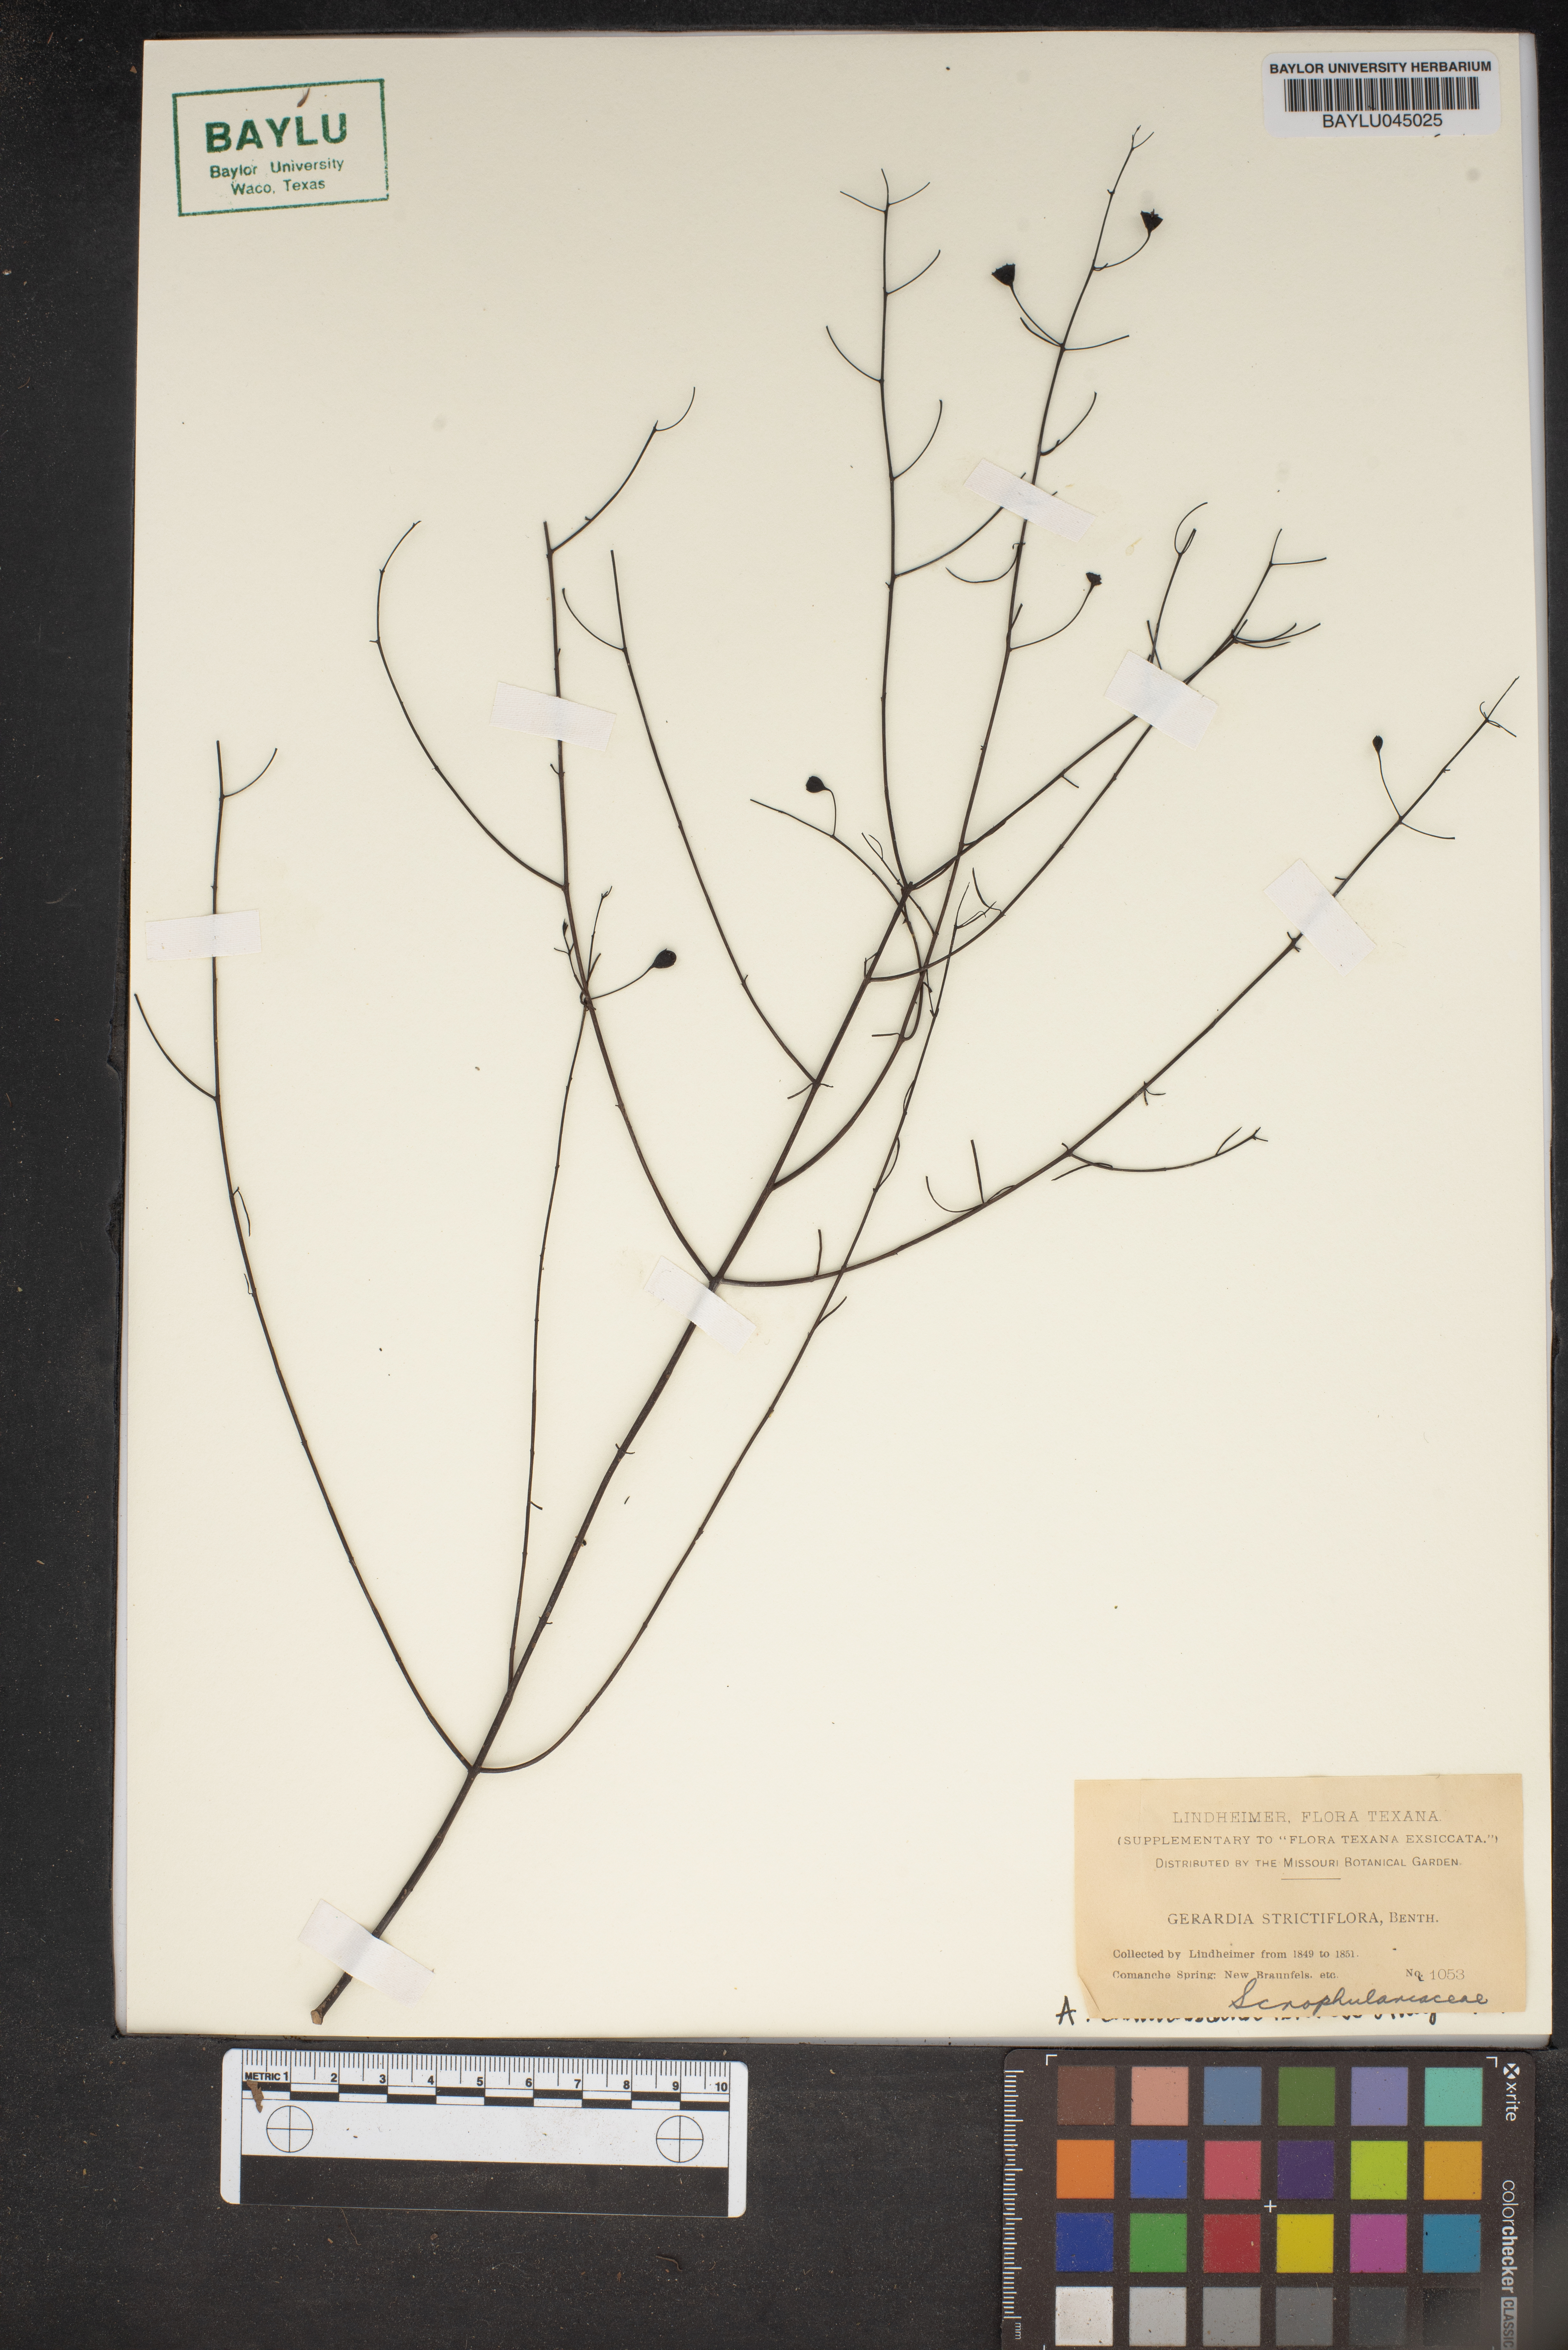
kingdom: Plantae
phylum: Tracheophyta
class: Magnoliopsida
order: Lamiales
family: Orobanchaceae
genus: Agalinis
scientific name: Agalinis strictifolia
